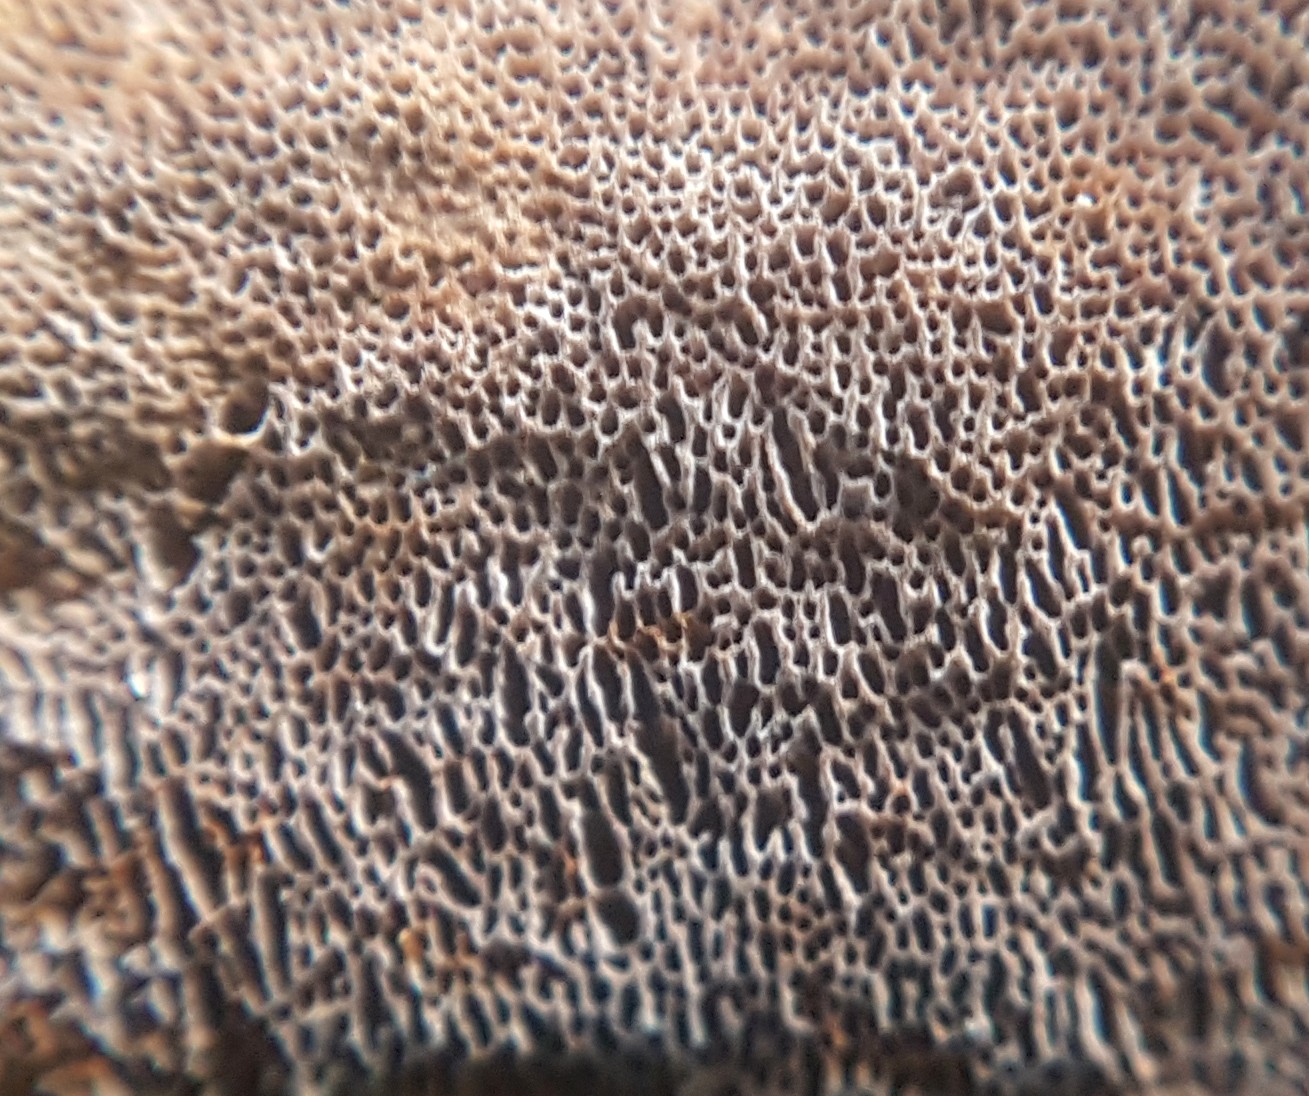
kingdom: Fungi
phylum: Basidiomycota
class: Agaricomycetes
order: Hymenochaetales
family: Hymenochaetaceae
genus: Fuscoporia
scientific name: Fuscoporia ferruginosa
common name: rustbrun ildporesvamp
